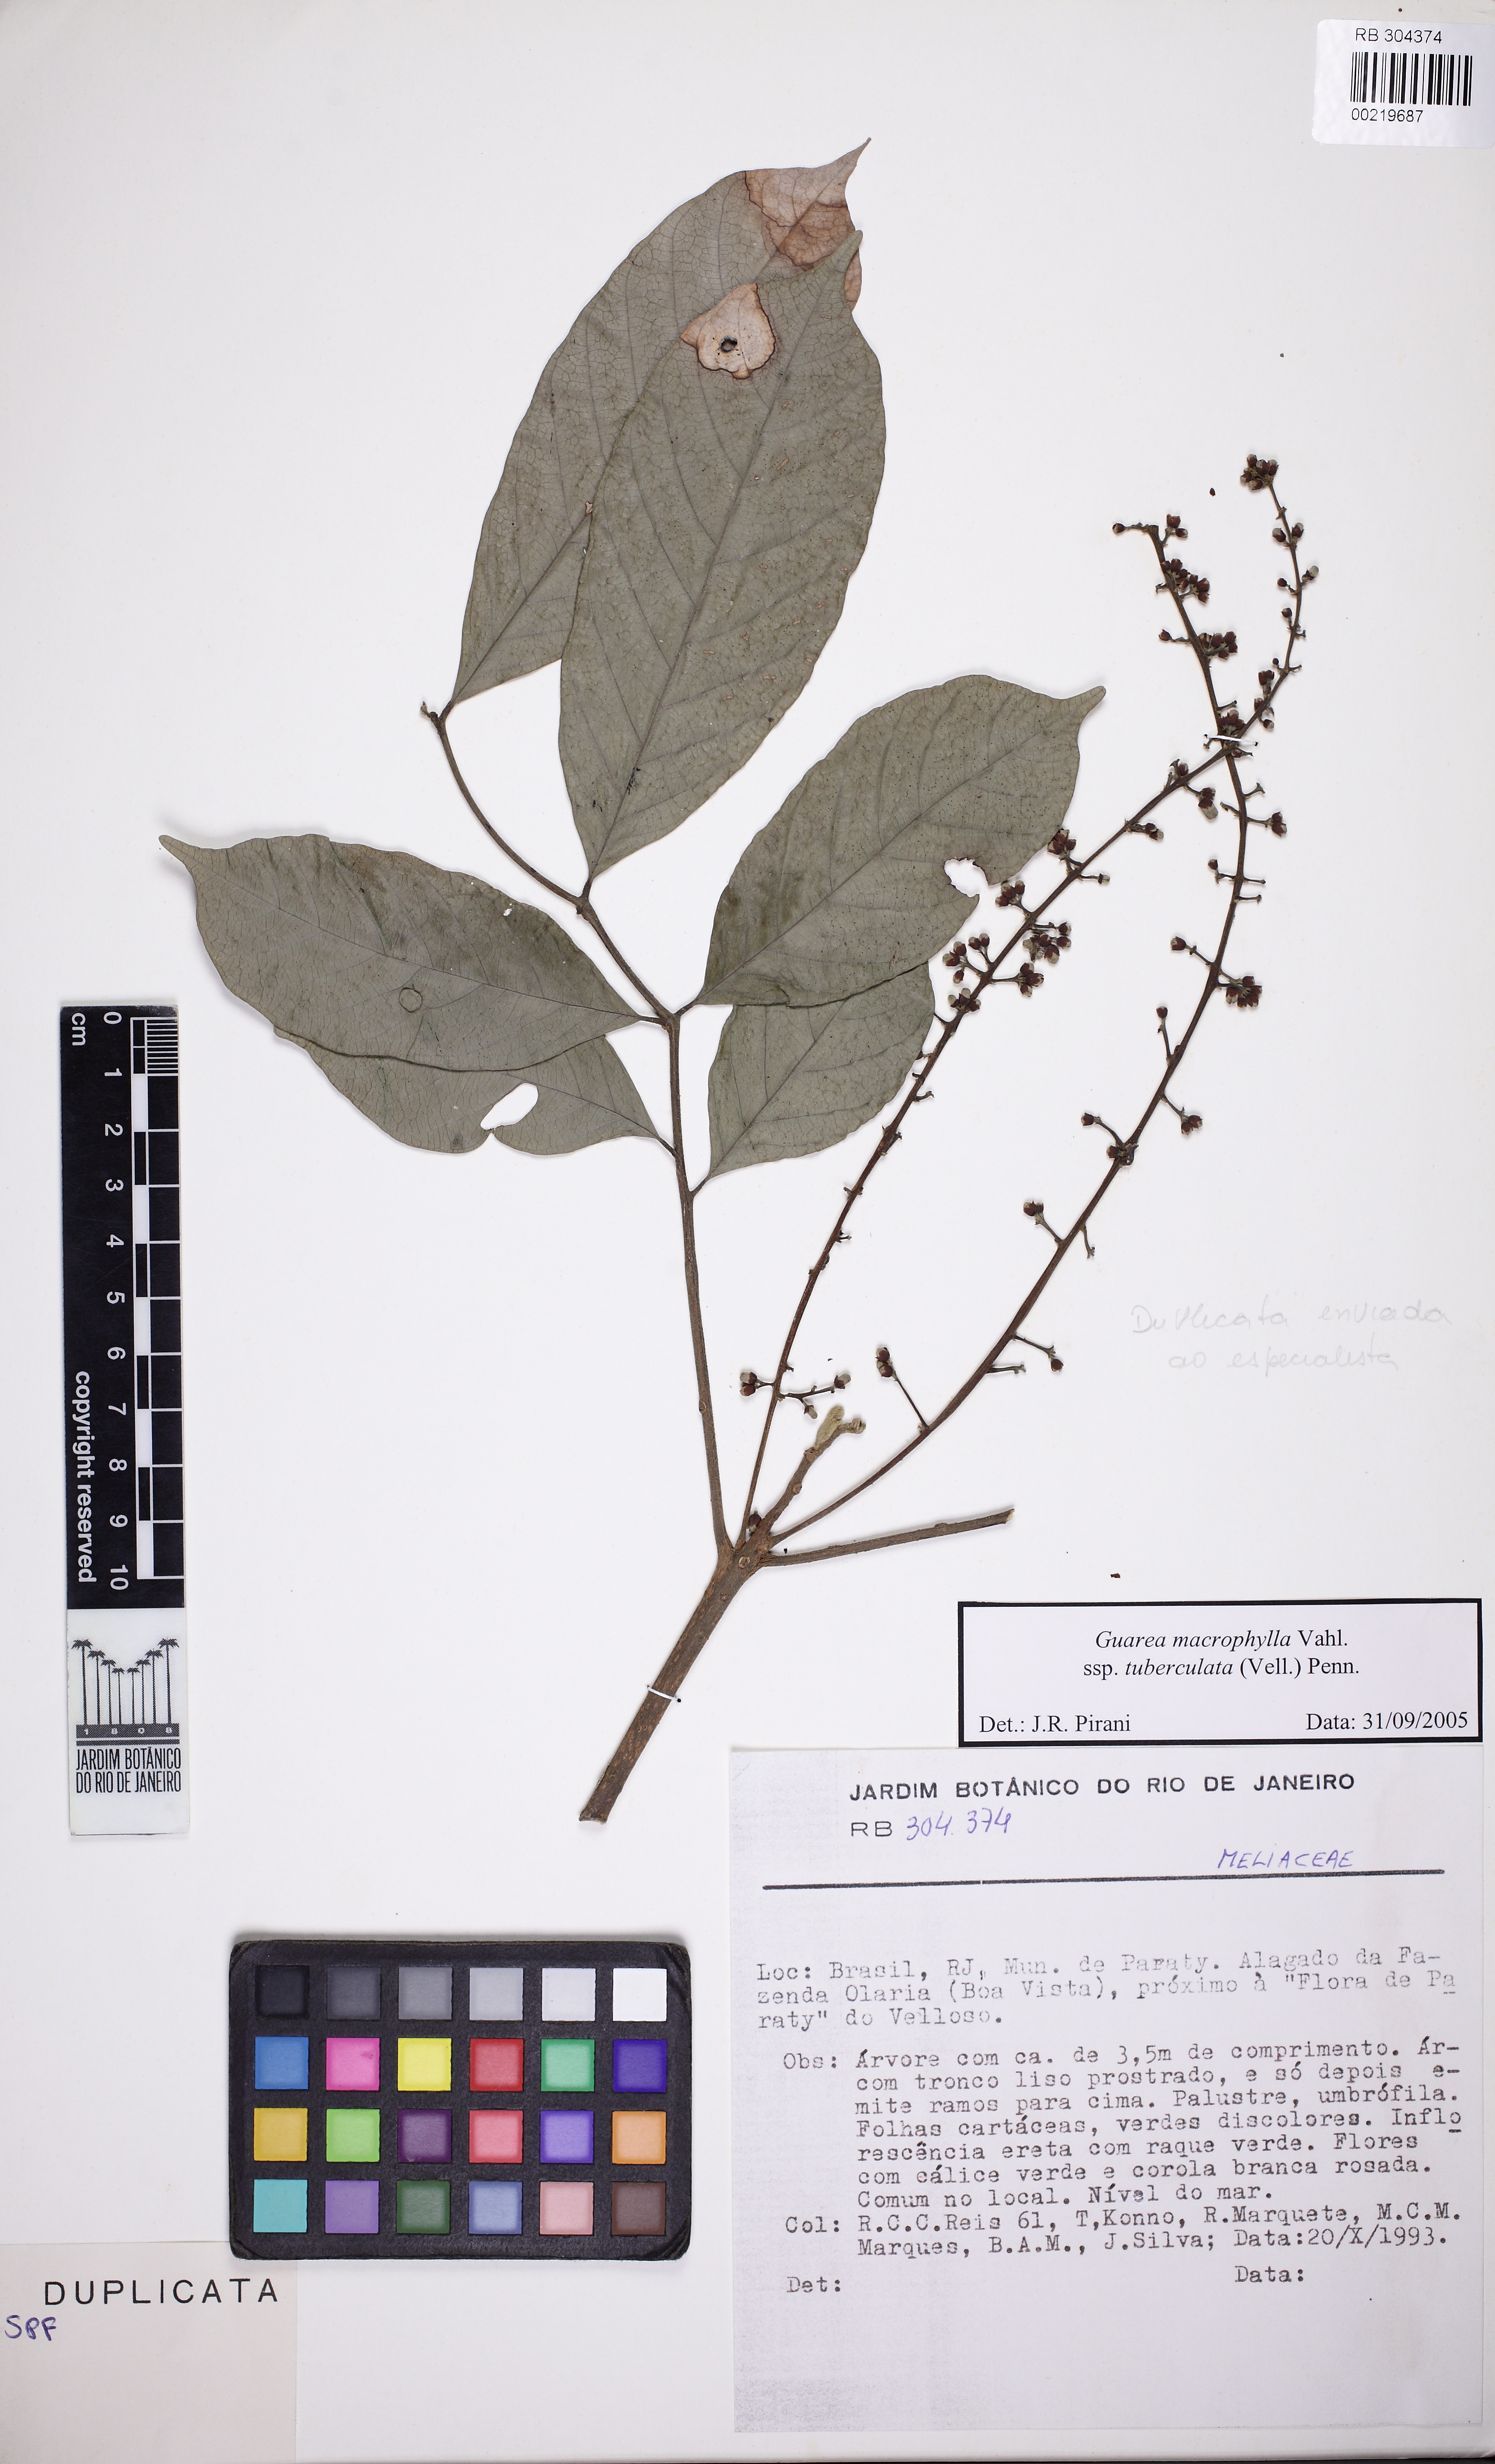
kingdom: Plantae
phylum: Tracheophyta
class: Magnoliopsida
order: Sapindales
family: Meliaceae
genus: Guarea
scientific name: Guarea macrophylla
